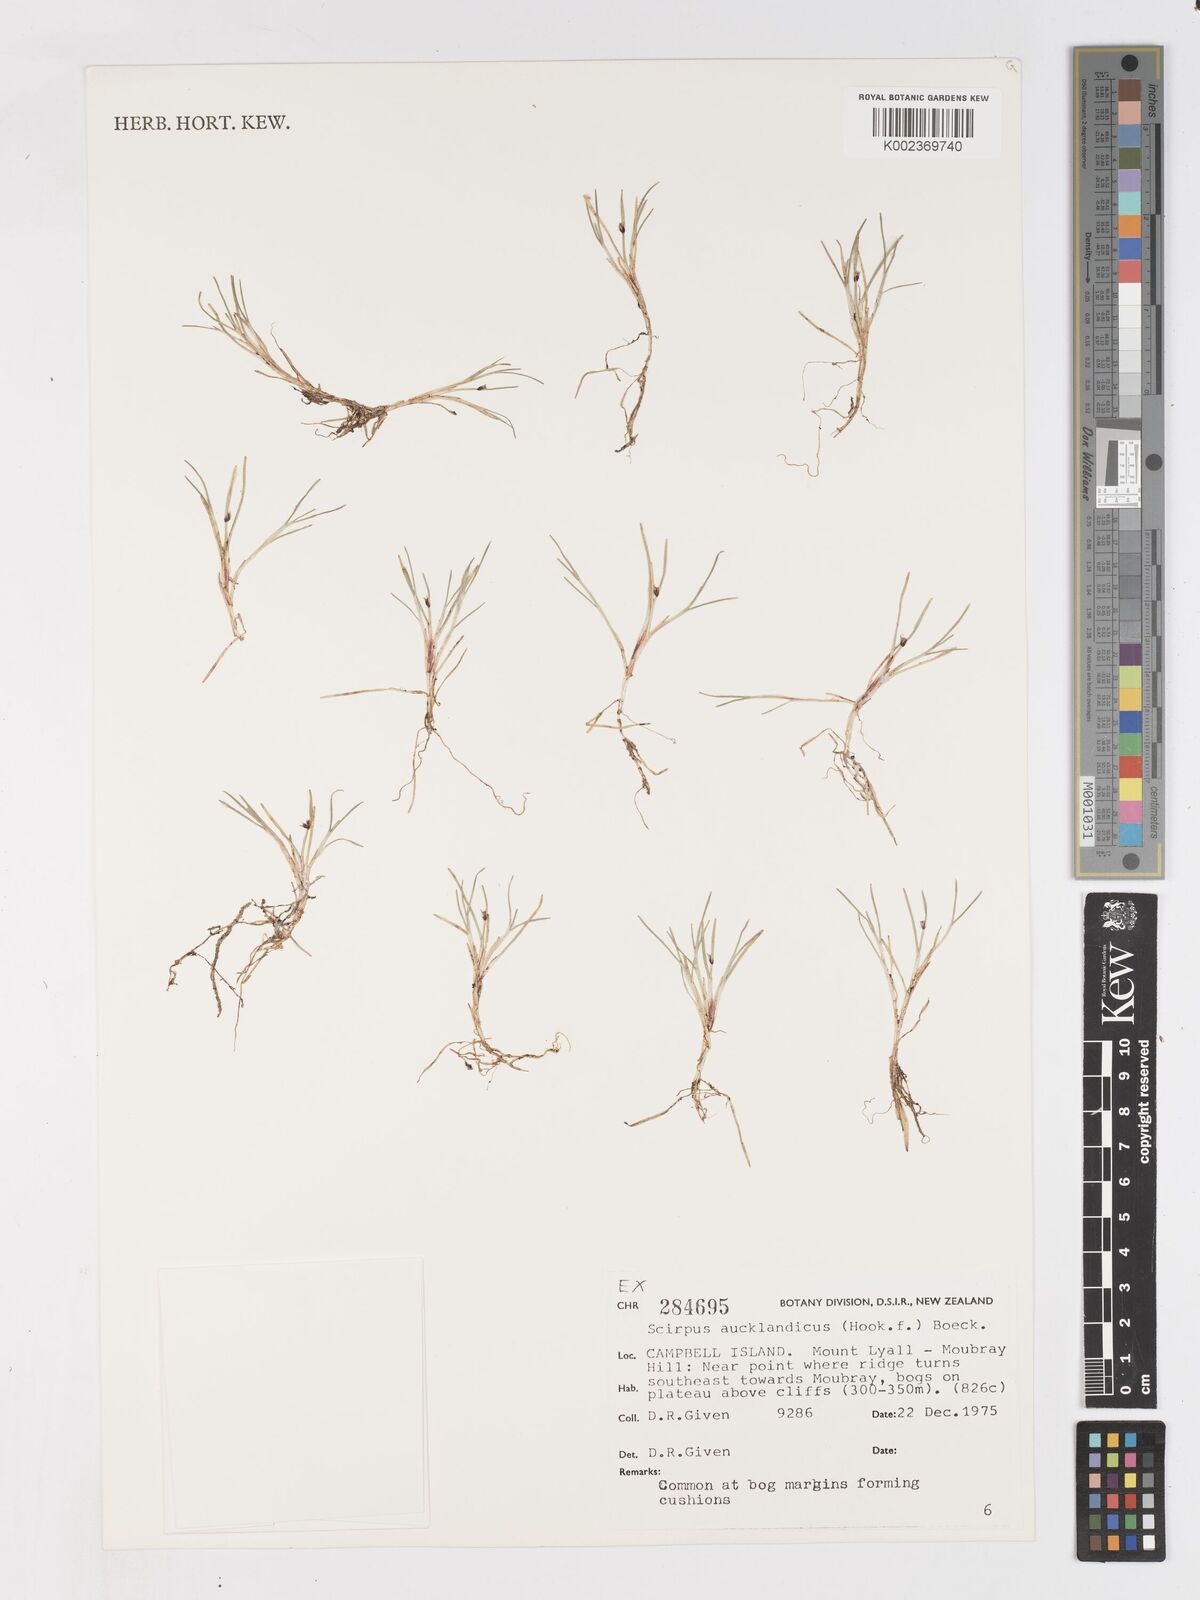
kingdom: Plantae
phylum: Tracheophyta
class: Liliopsida
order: Poales
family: Cyperaceae
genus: Isolepis
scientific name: Isolepis aucklandica
